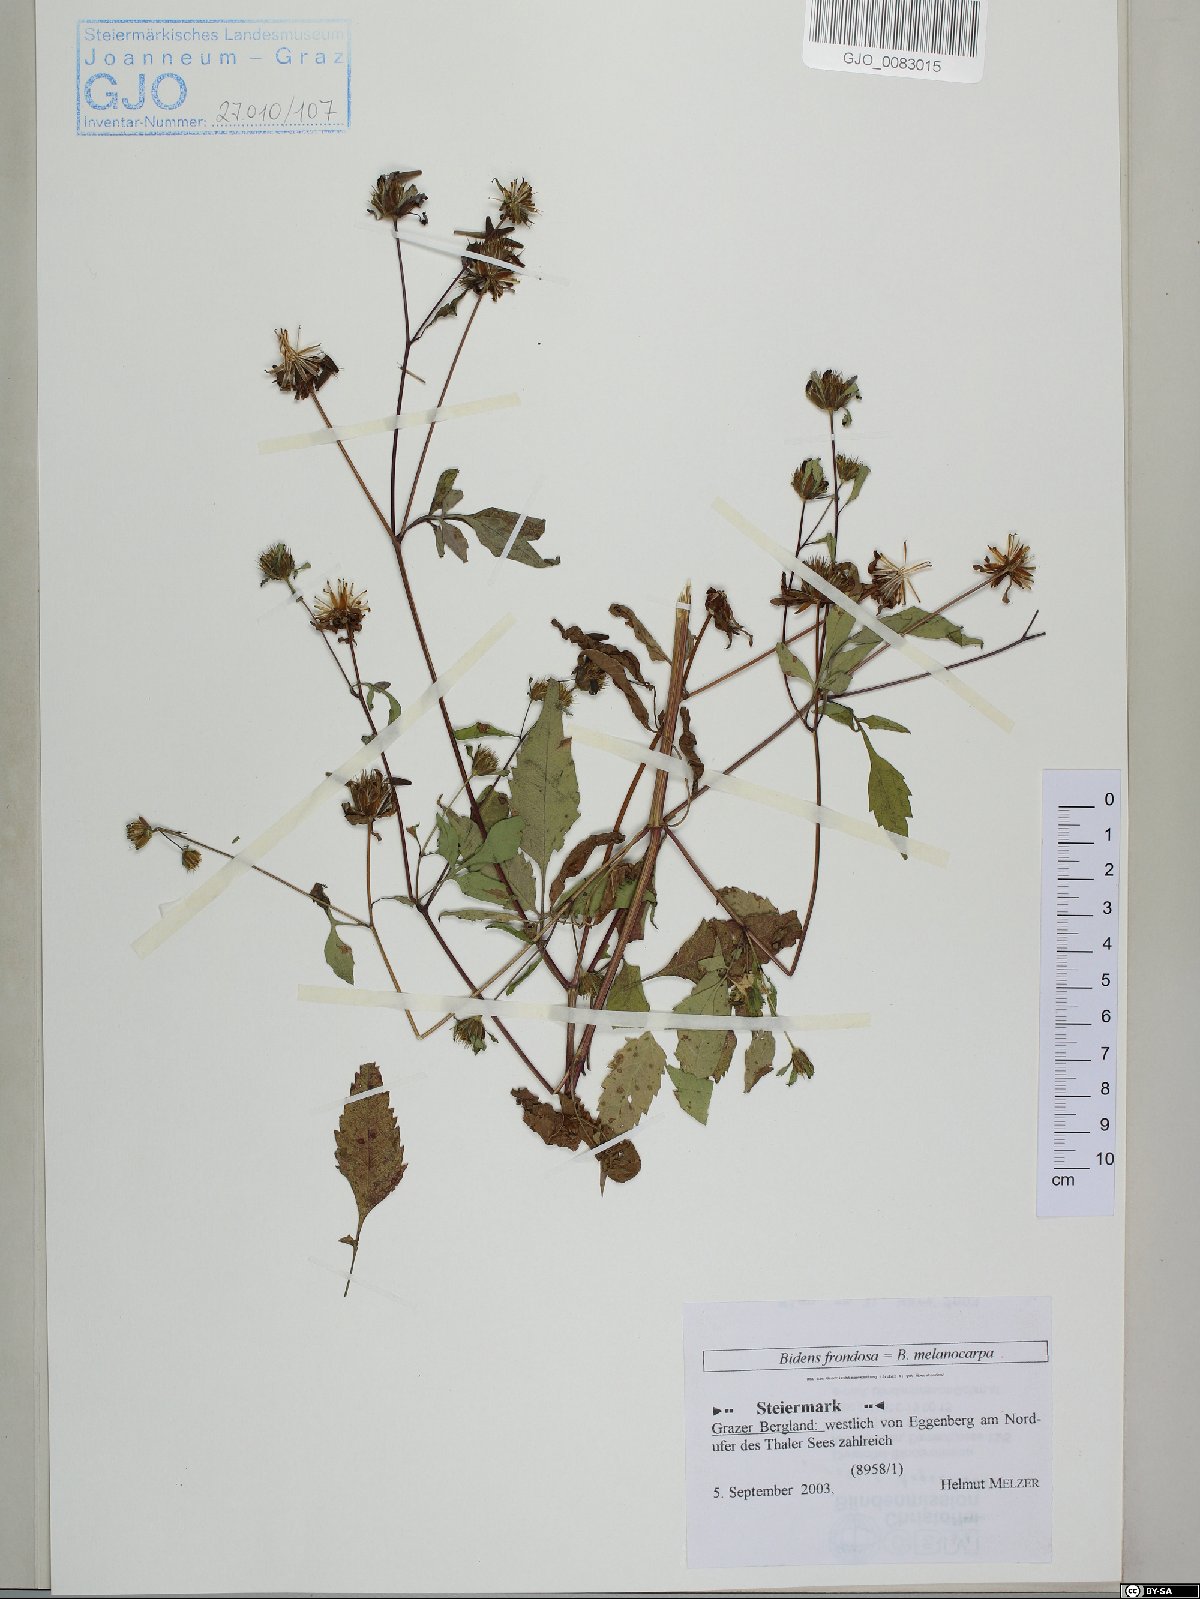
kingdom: Plantae
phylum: Tracheophyta
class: Magnoliopsida
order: Asterales
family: Asteraceae
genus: Bidens
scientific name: Bidens frondosa
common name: Beggarticks
